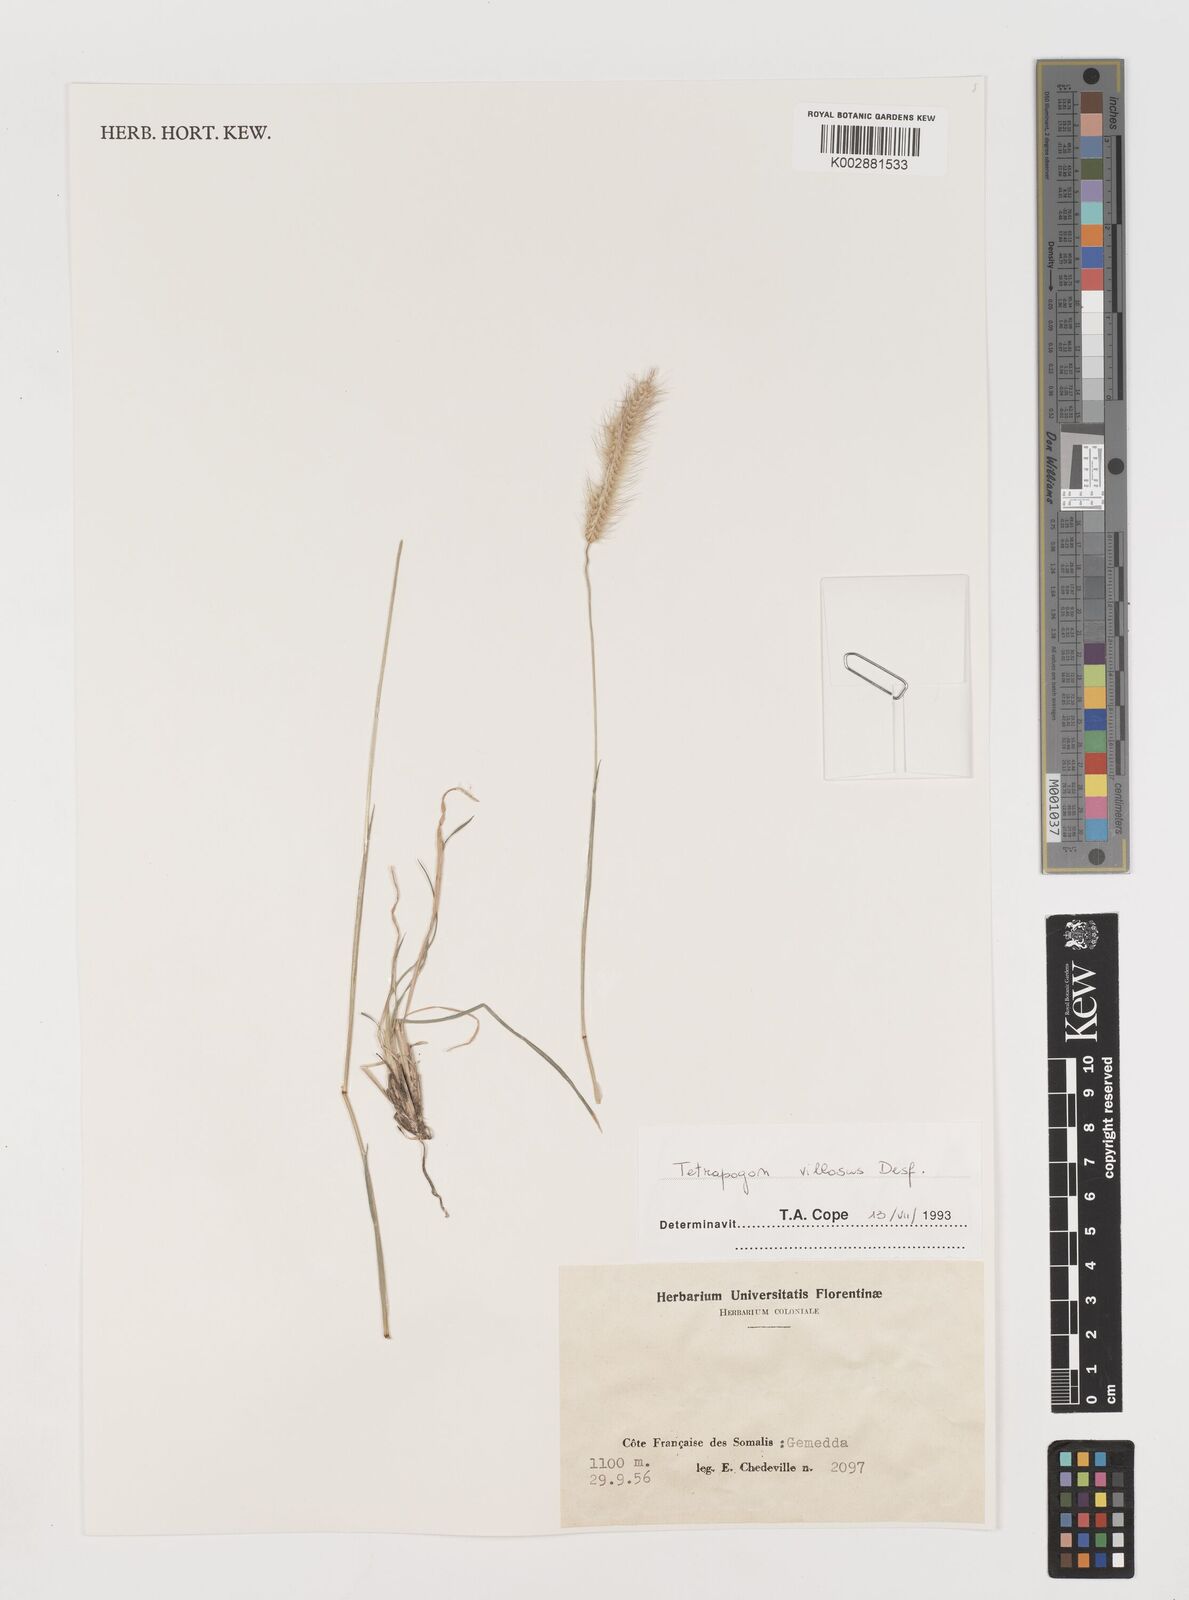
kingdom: Plantae
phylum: Tracheophyta
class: Liliopsida
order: Poales
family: Poaceae
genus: Tetrapogon
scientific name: Tetrapogon villosus
